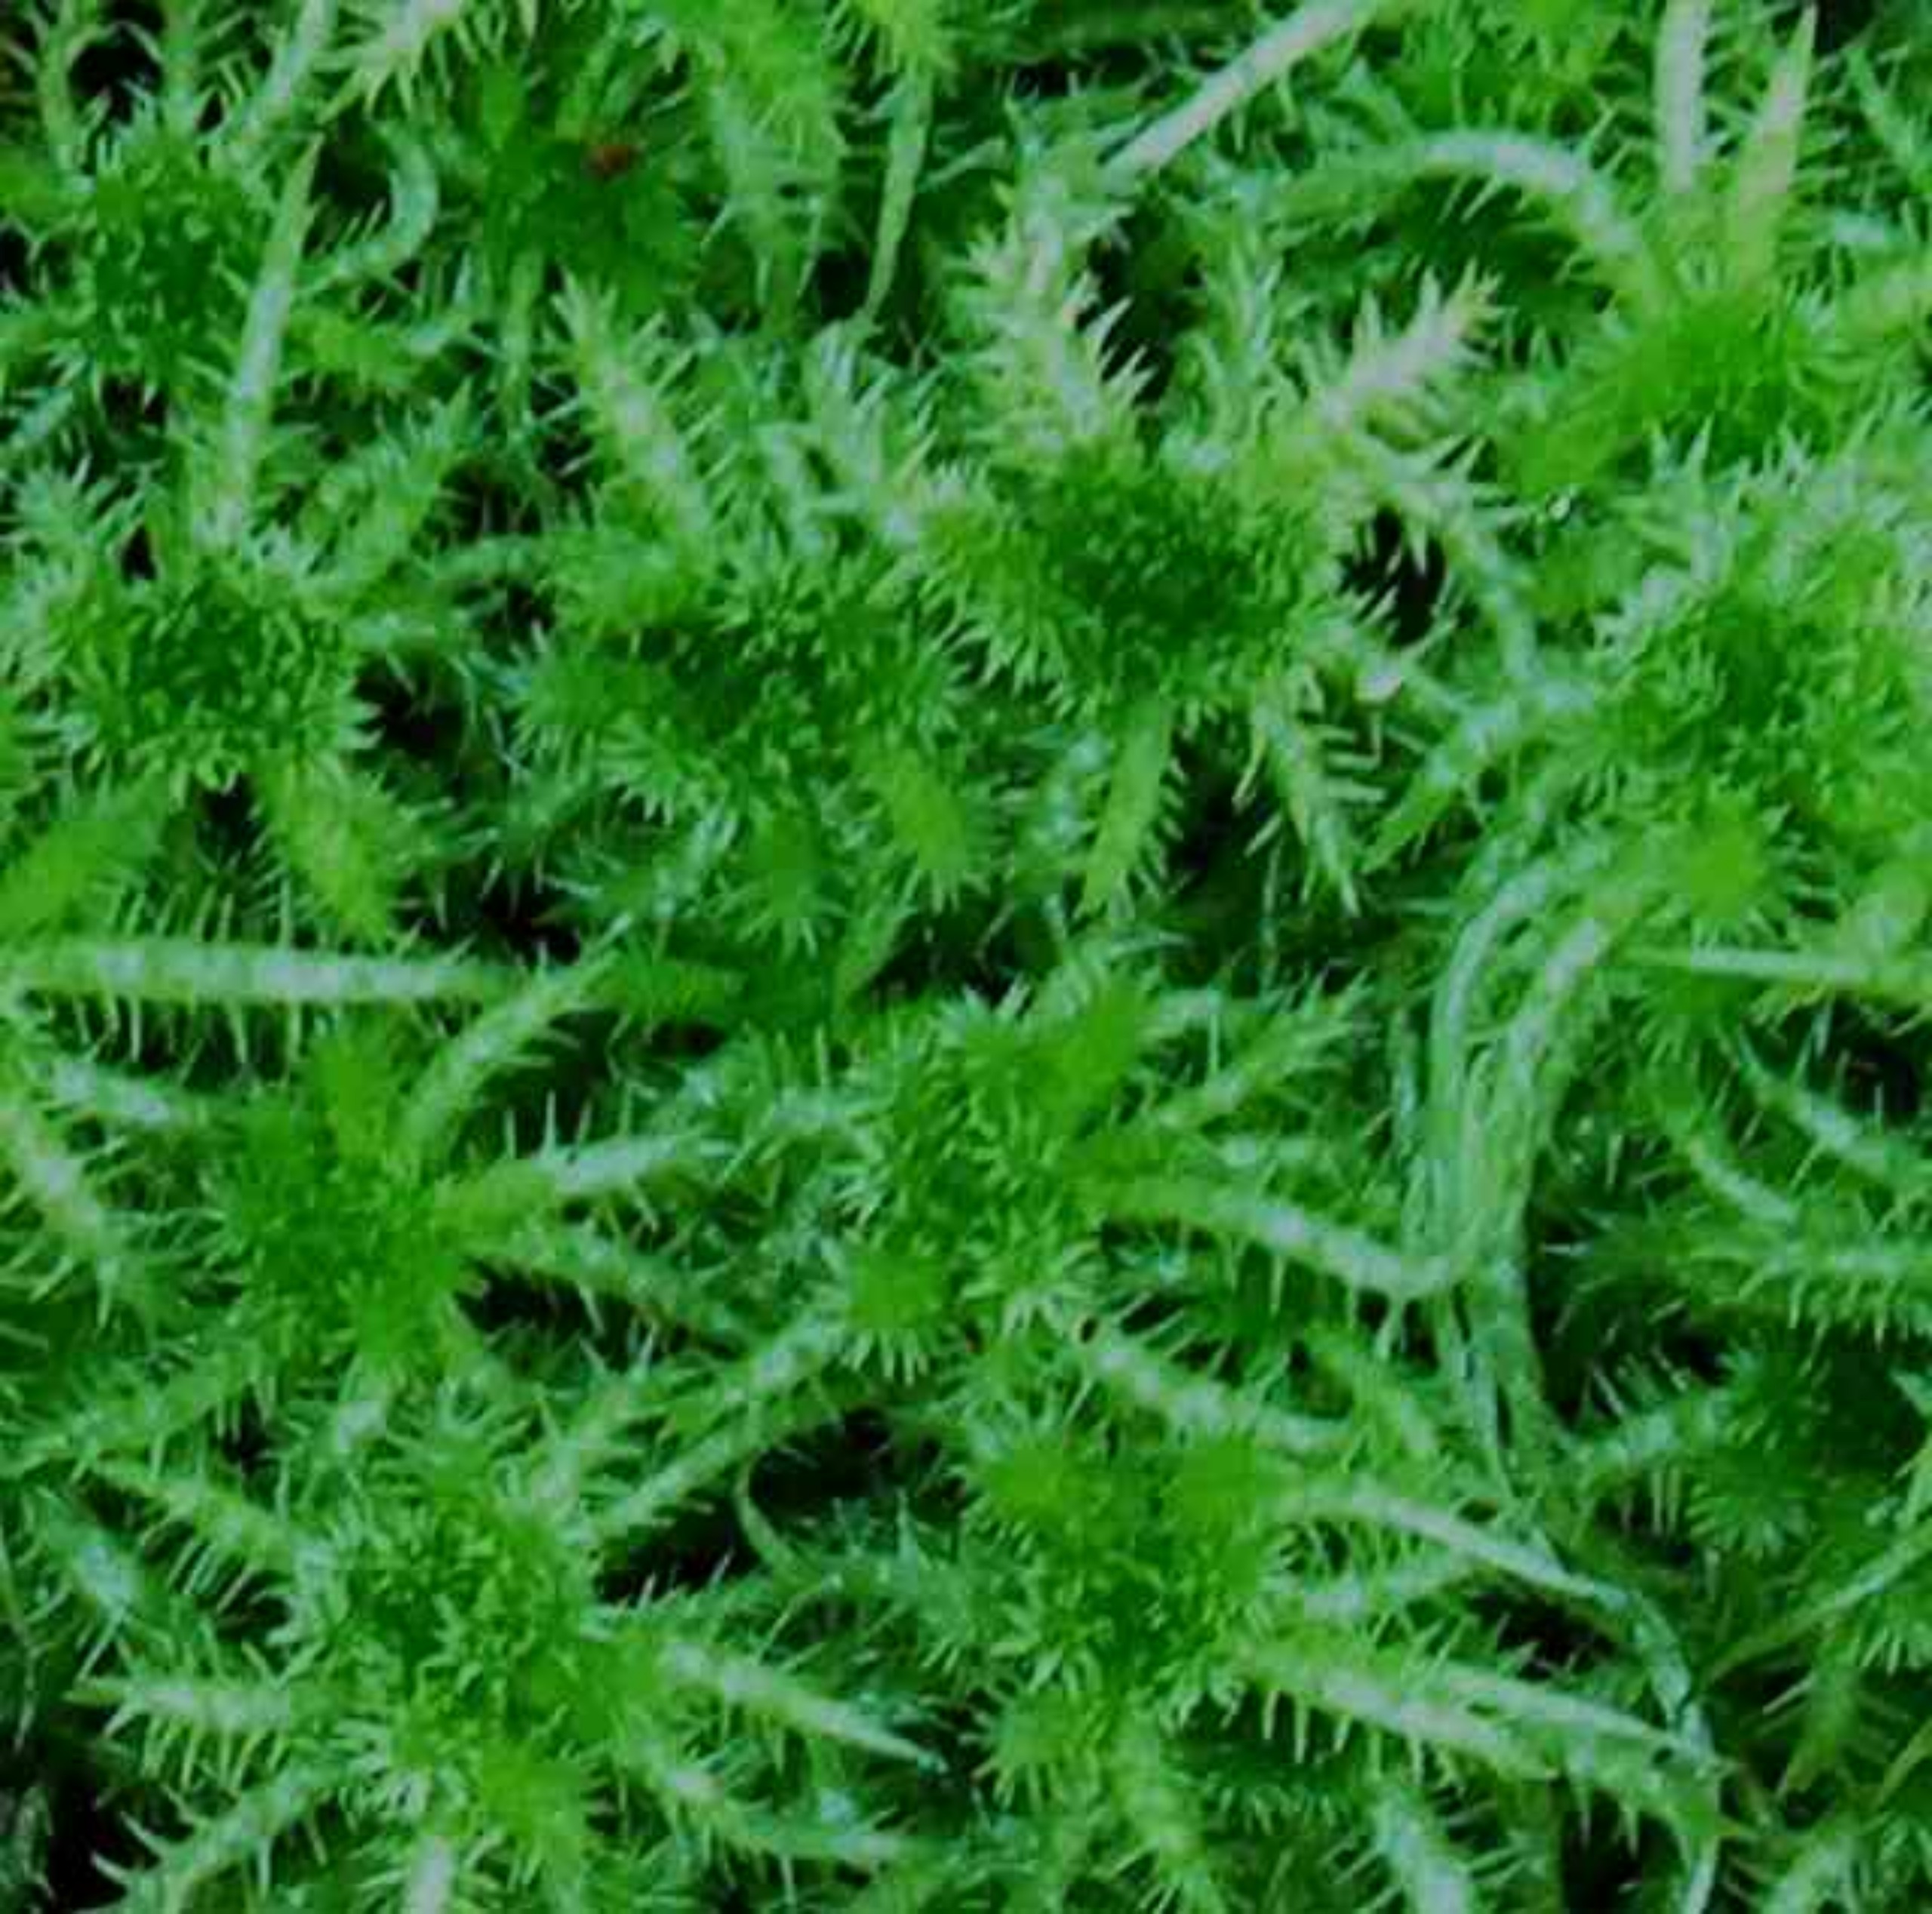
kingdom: Plantae
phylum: Bryophyta
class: Sphagnopsida
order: Sphagnales
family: Sphagnaceae
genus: Sphagnum
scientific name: Sphagnum squarrosum
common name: Udspærret tørvemos
